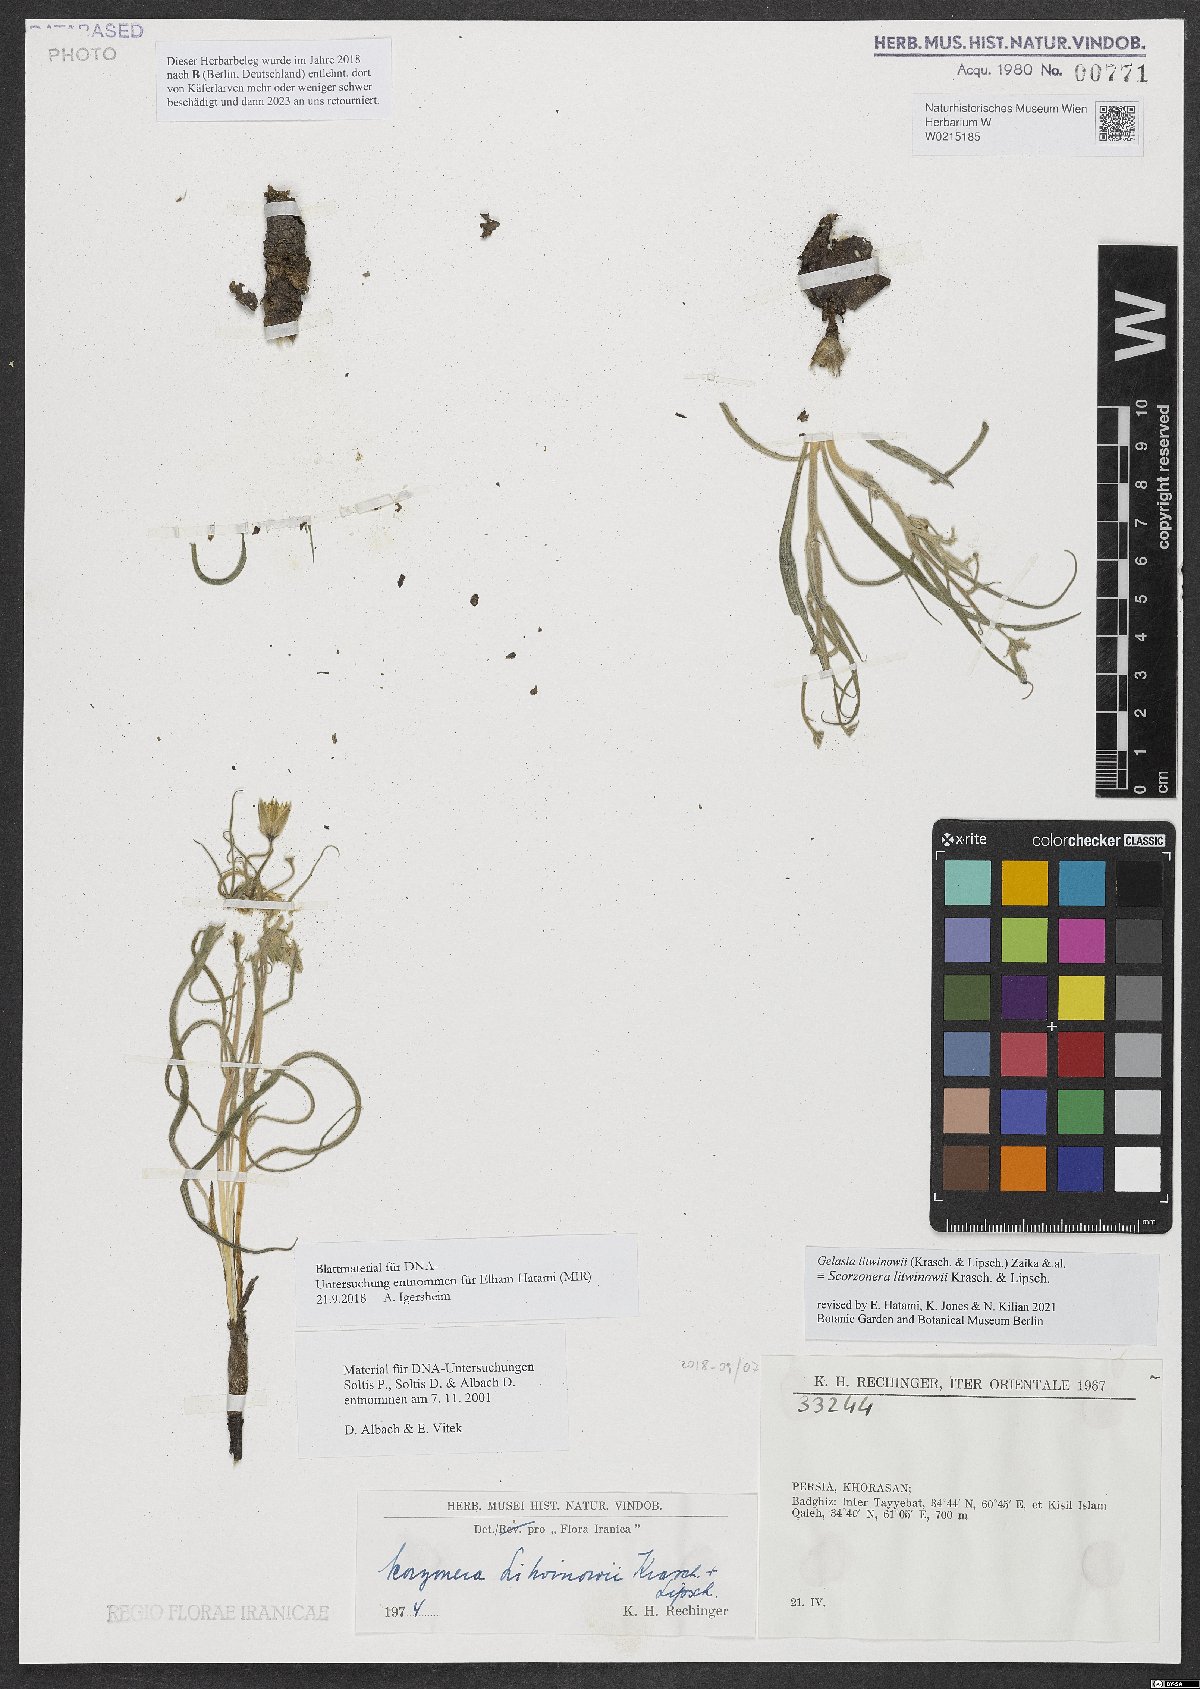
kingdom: Plantae
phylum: Tracheophyta
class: Magnoliopsida
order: Asterales
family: Asteraceae
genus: Goekyighitia
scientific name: Goekyighitia litwinowii
